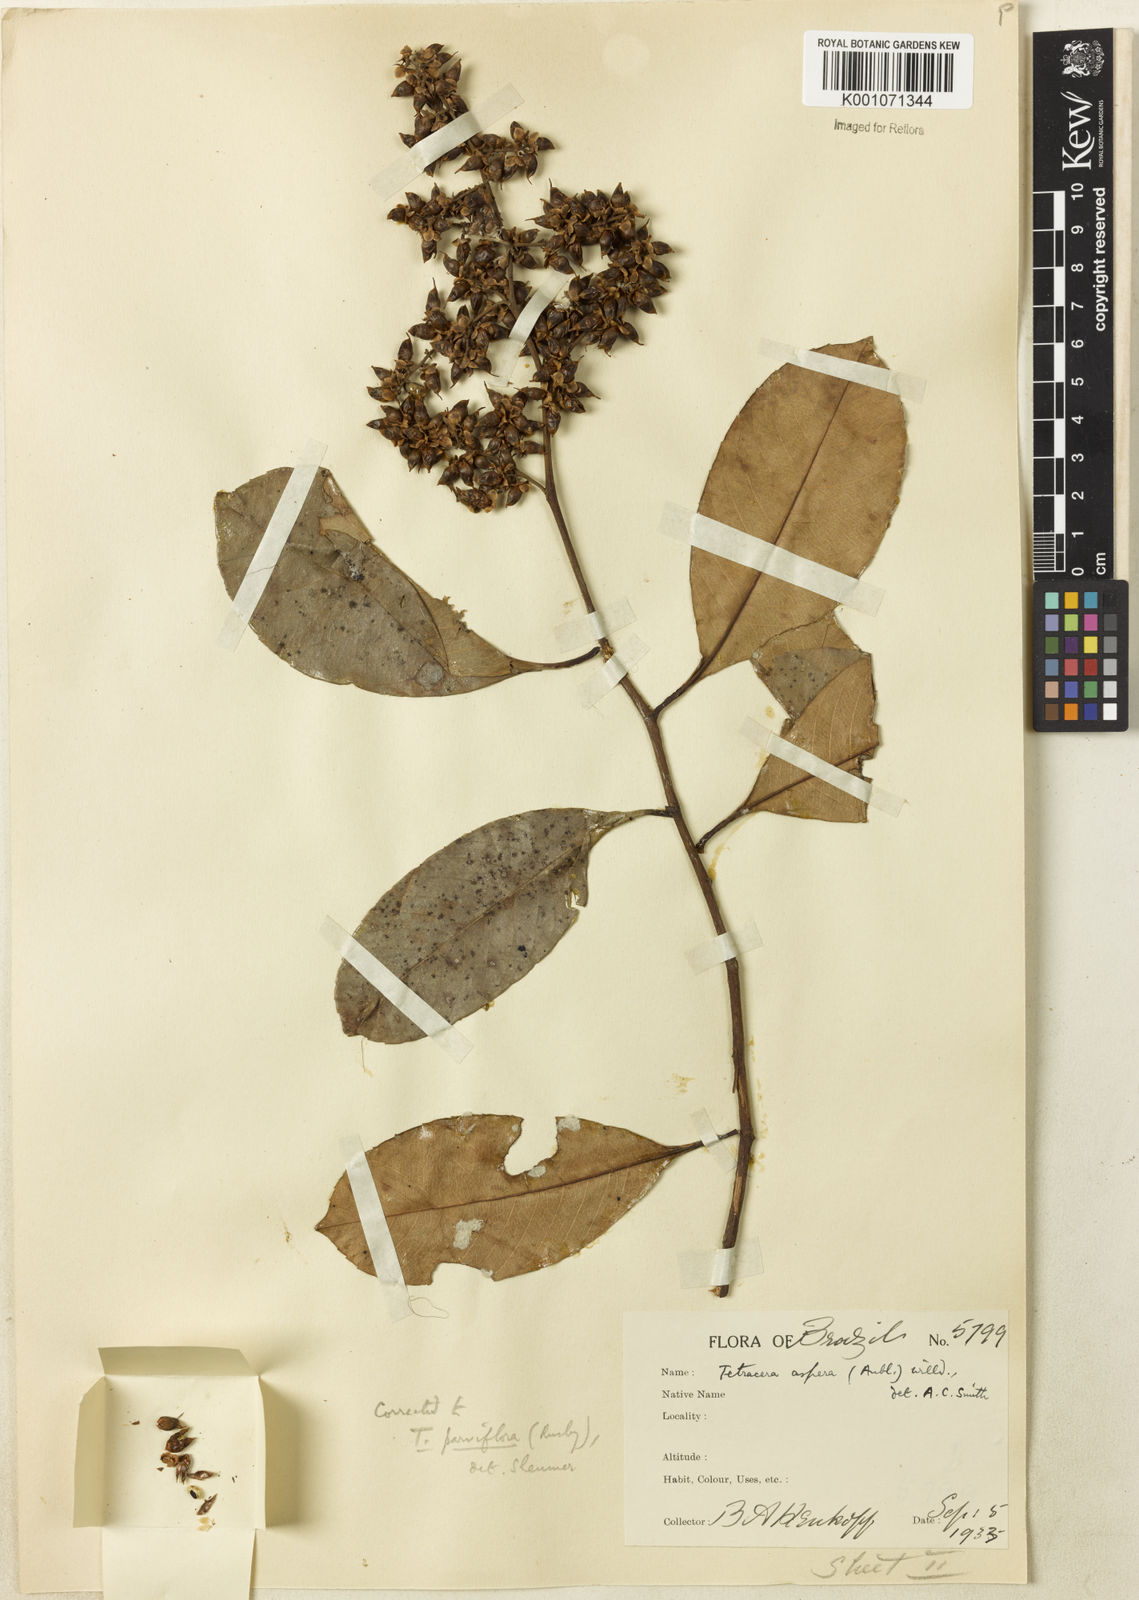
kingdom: Plantae
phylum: Tracheophyta
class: Magnoliopsida
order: Dilleniales
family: Dilleniaceae
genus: Tetracera
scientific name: Tetracera parviflora
